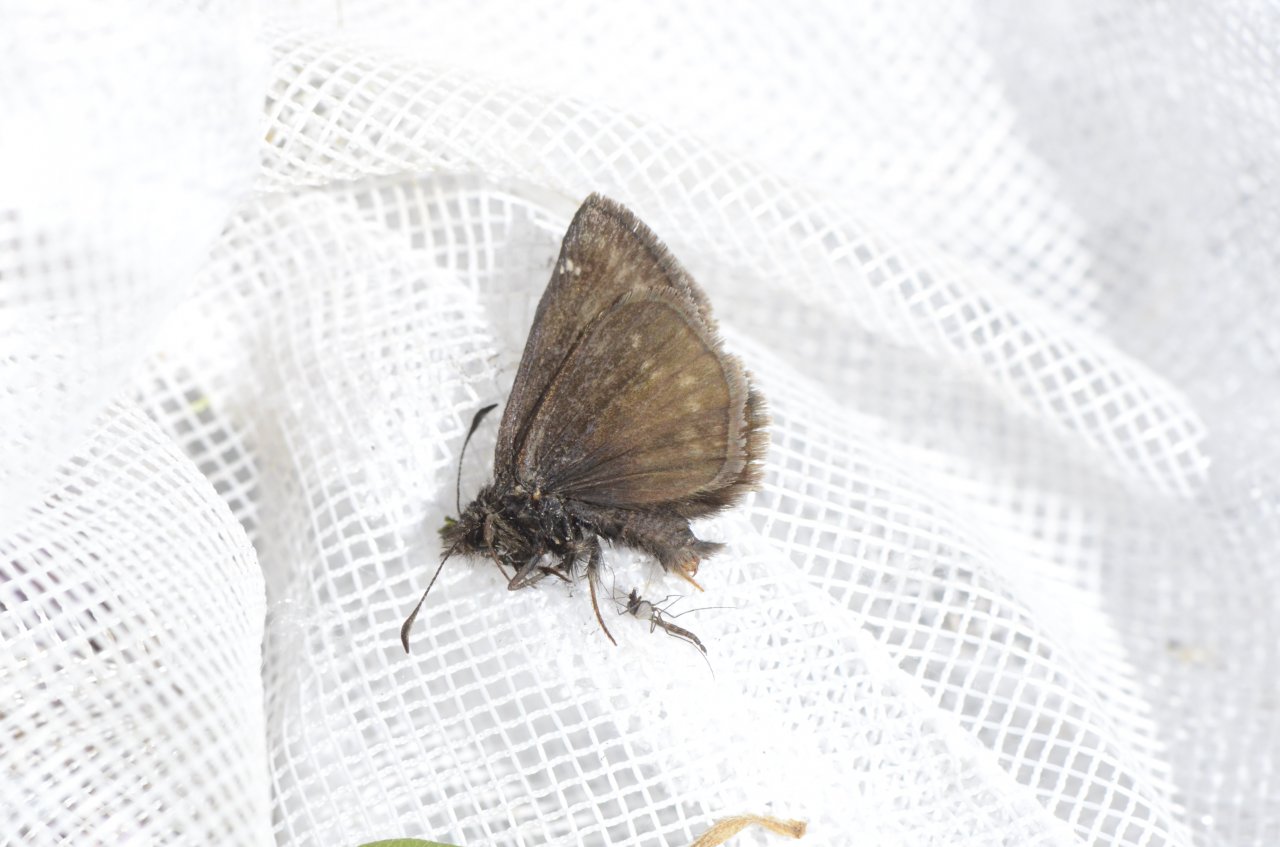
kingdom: Animalia
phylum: Arthropoda
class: Insecta
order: Lepidoptera
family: Hesperiidae
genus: Gesta
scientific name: Gesta
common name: Columbine Duskywing
